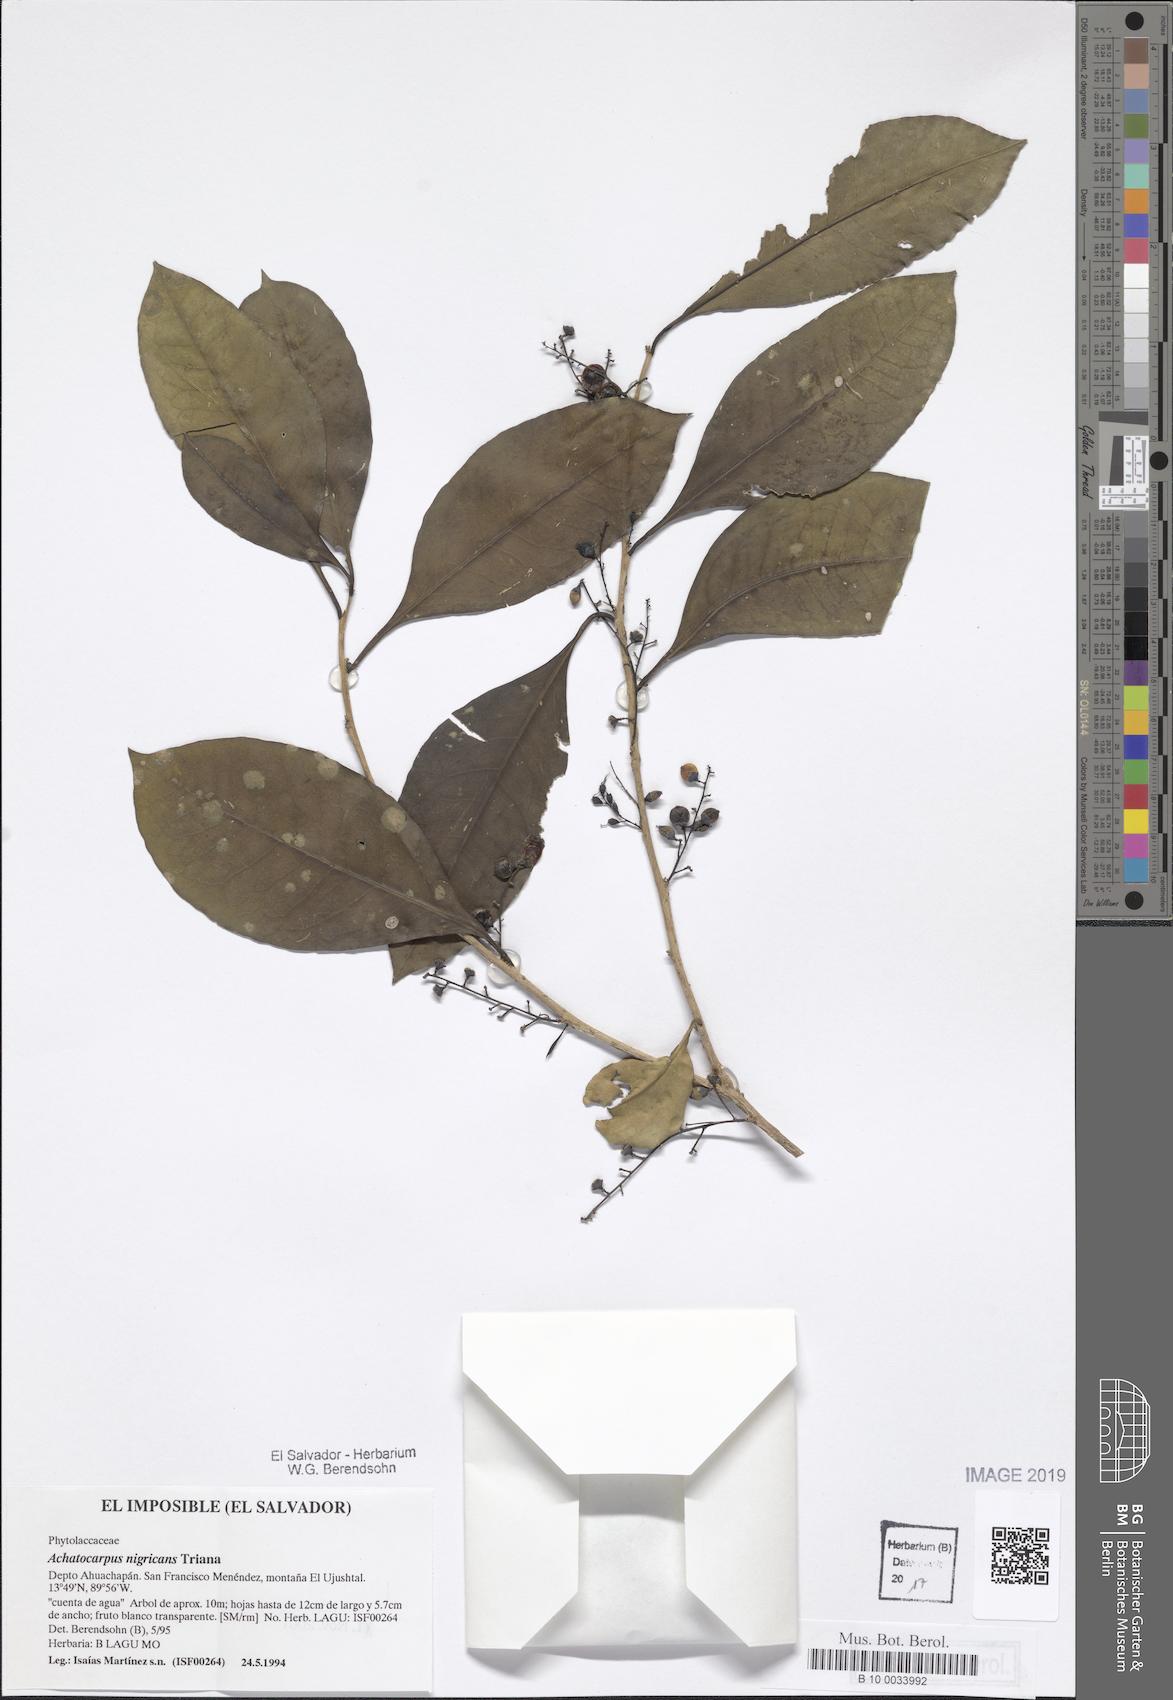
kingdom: Plantae
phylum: Tracheophyta
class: Magnoliopsida
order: Caryophyllales
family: Achatocarpaceae
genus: Achatocarpus
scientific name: Achatocarpus nigricans
